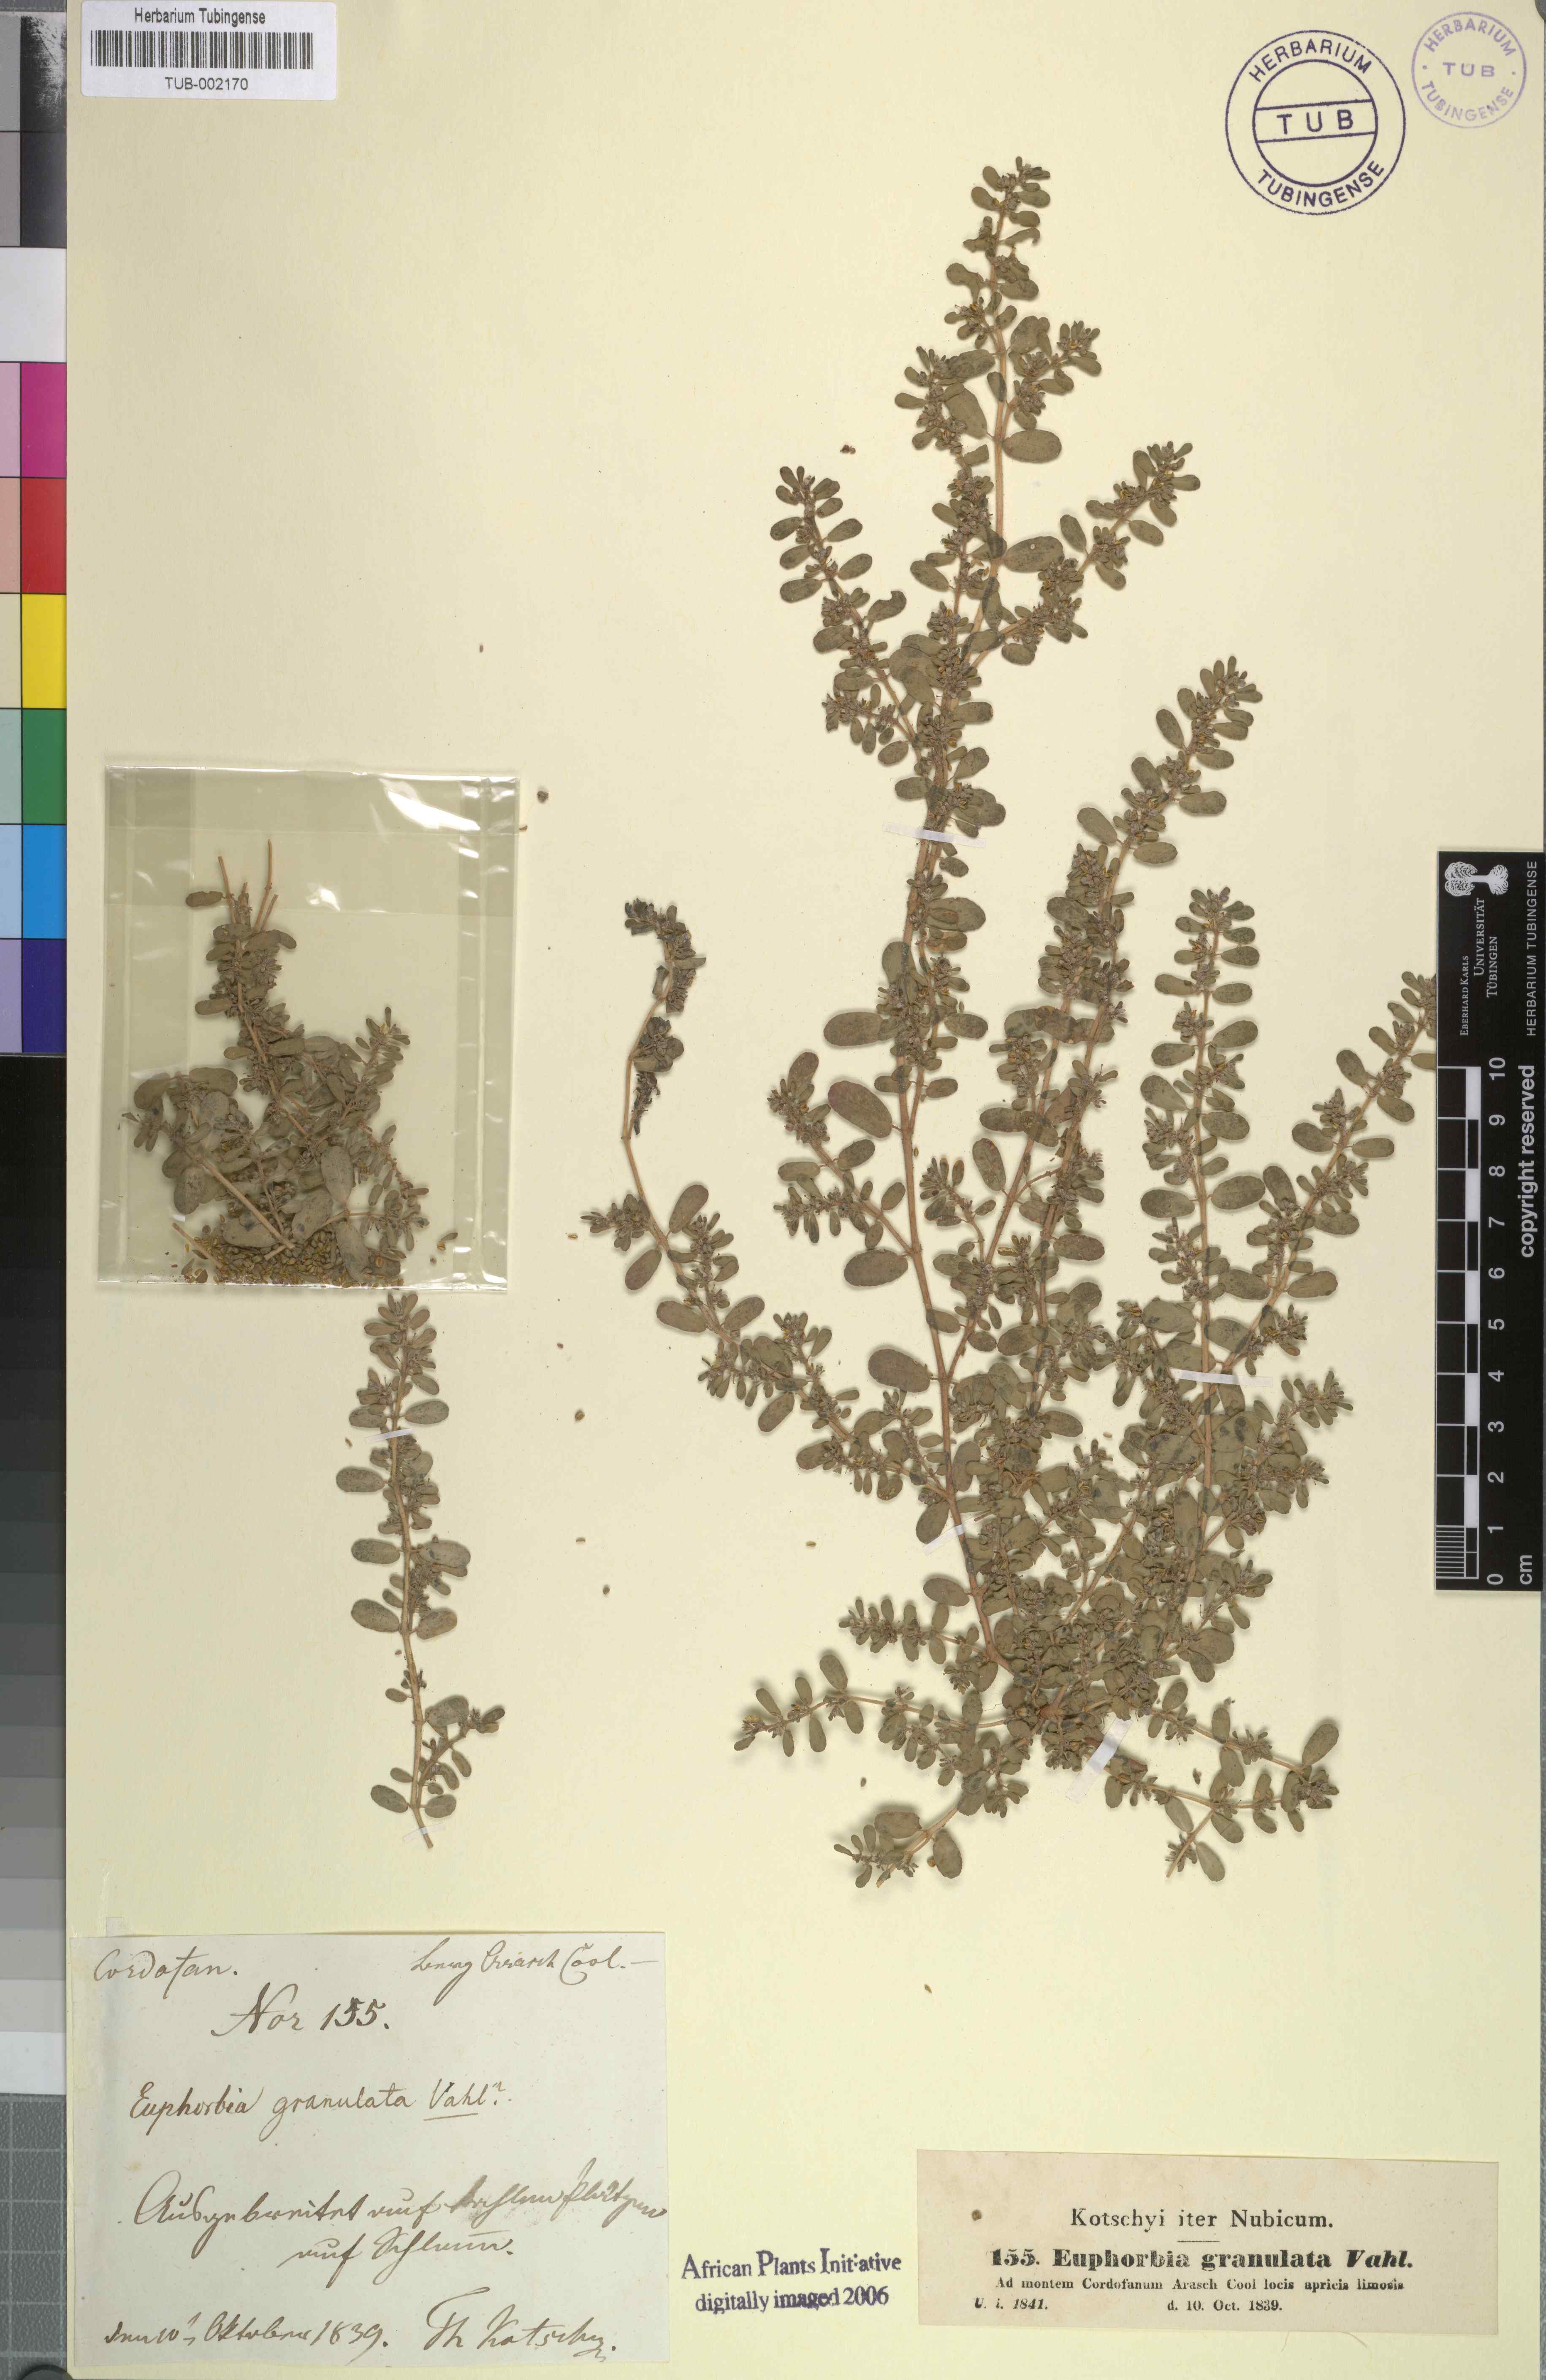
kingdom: Plantae
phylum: Tracheophyta
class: Magnoliopsida
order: Malpighiales
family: Euphorbiaceae
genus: Euphorbia
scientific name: Euphorbia forsskalii
